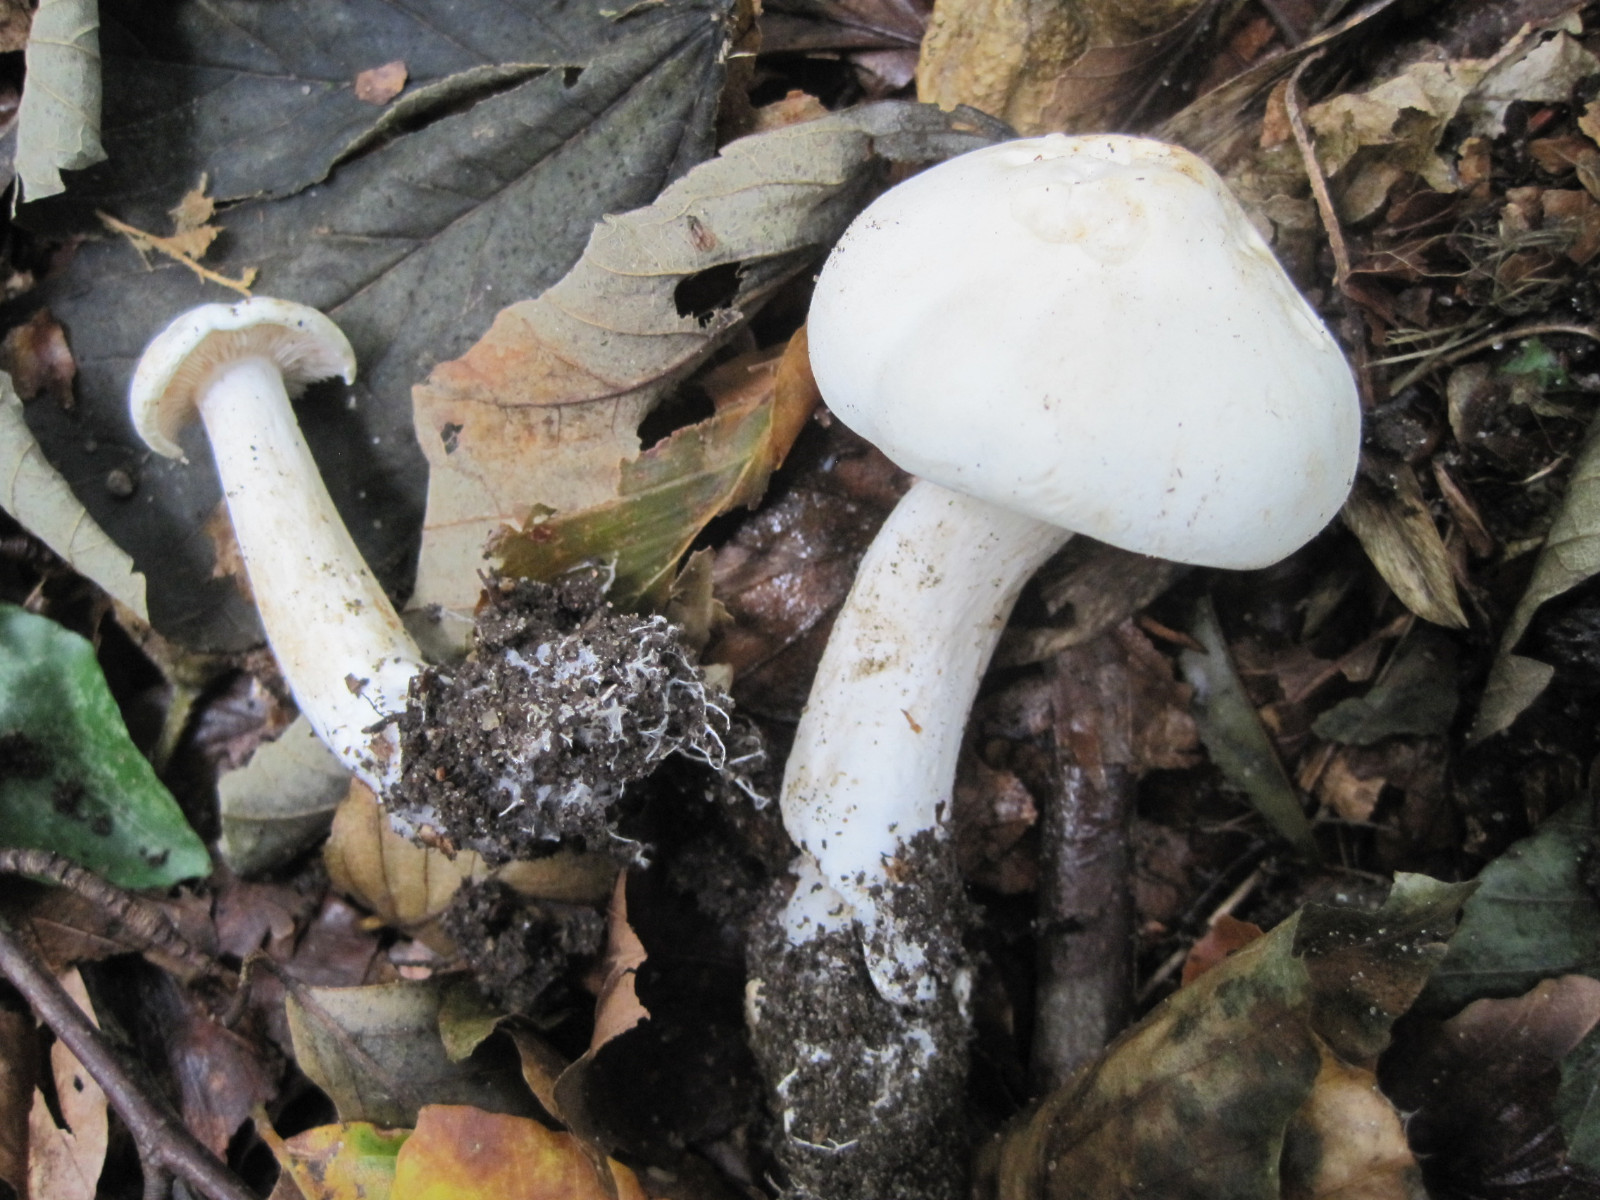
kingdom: Fungi
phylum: Basidiomycota
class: Agaricomycetes
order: Agaricales
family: Tricholomataceae
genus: Tricholoma
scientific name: Tricholoma album
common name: honning-ridderhat
